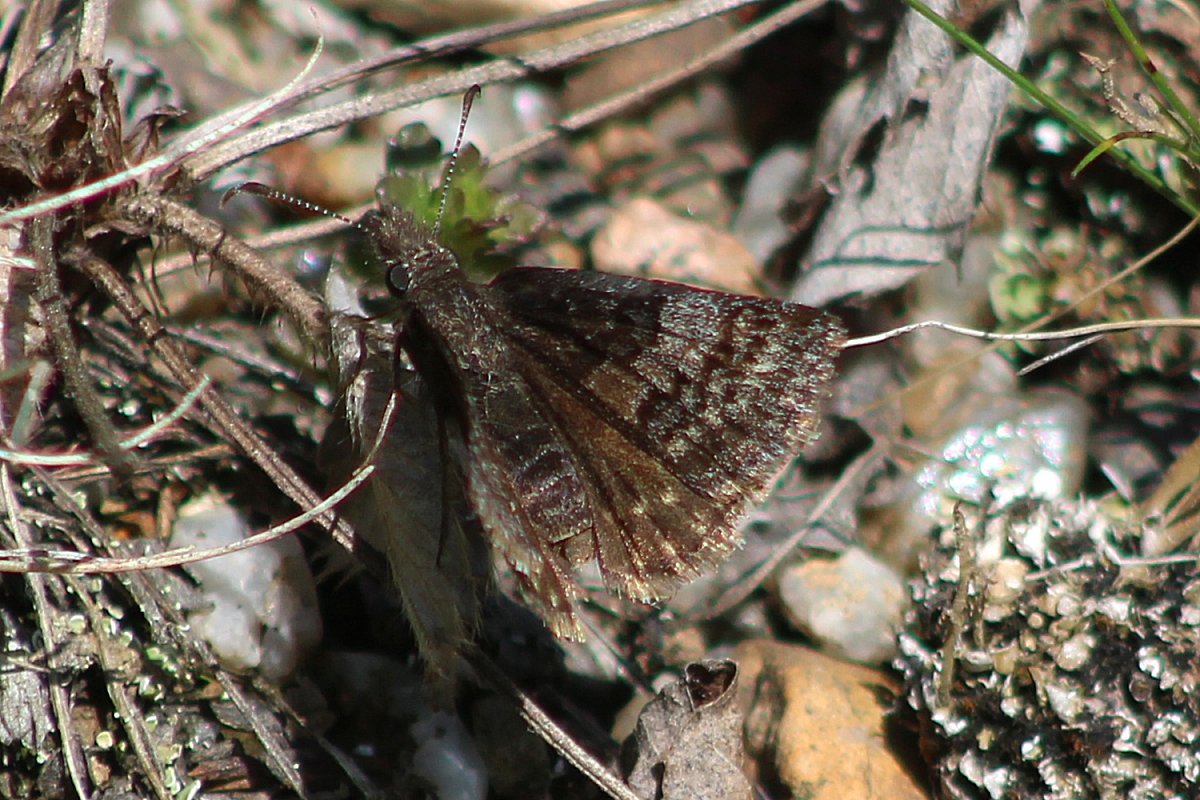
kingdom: Animalia
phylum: Arthropoda
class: Insecta
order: Lepidoptera
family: Hesperiidae
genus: Erynnis
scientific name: Erynnis icelus
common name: Dreamy Duskywing
